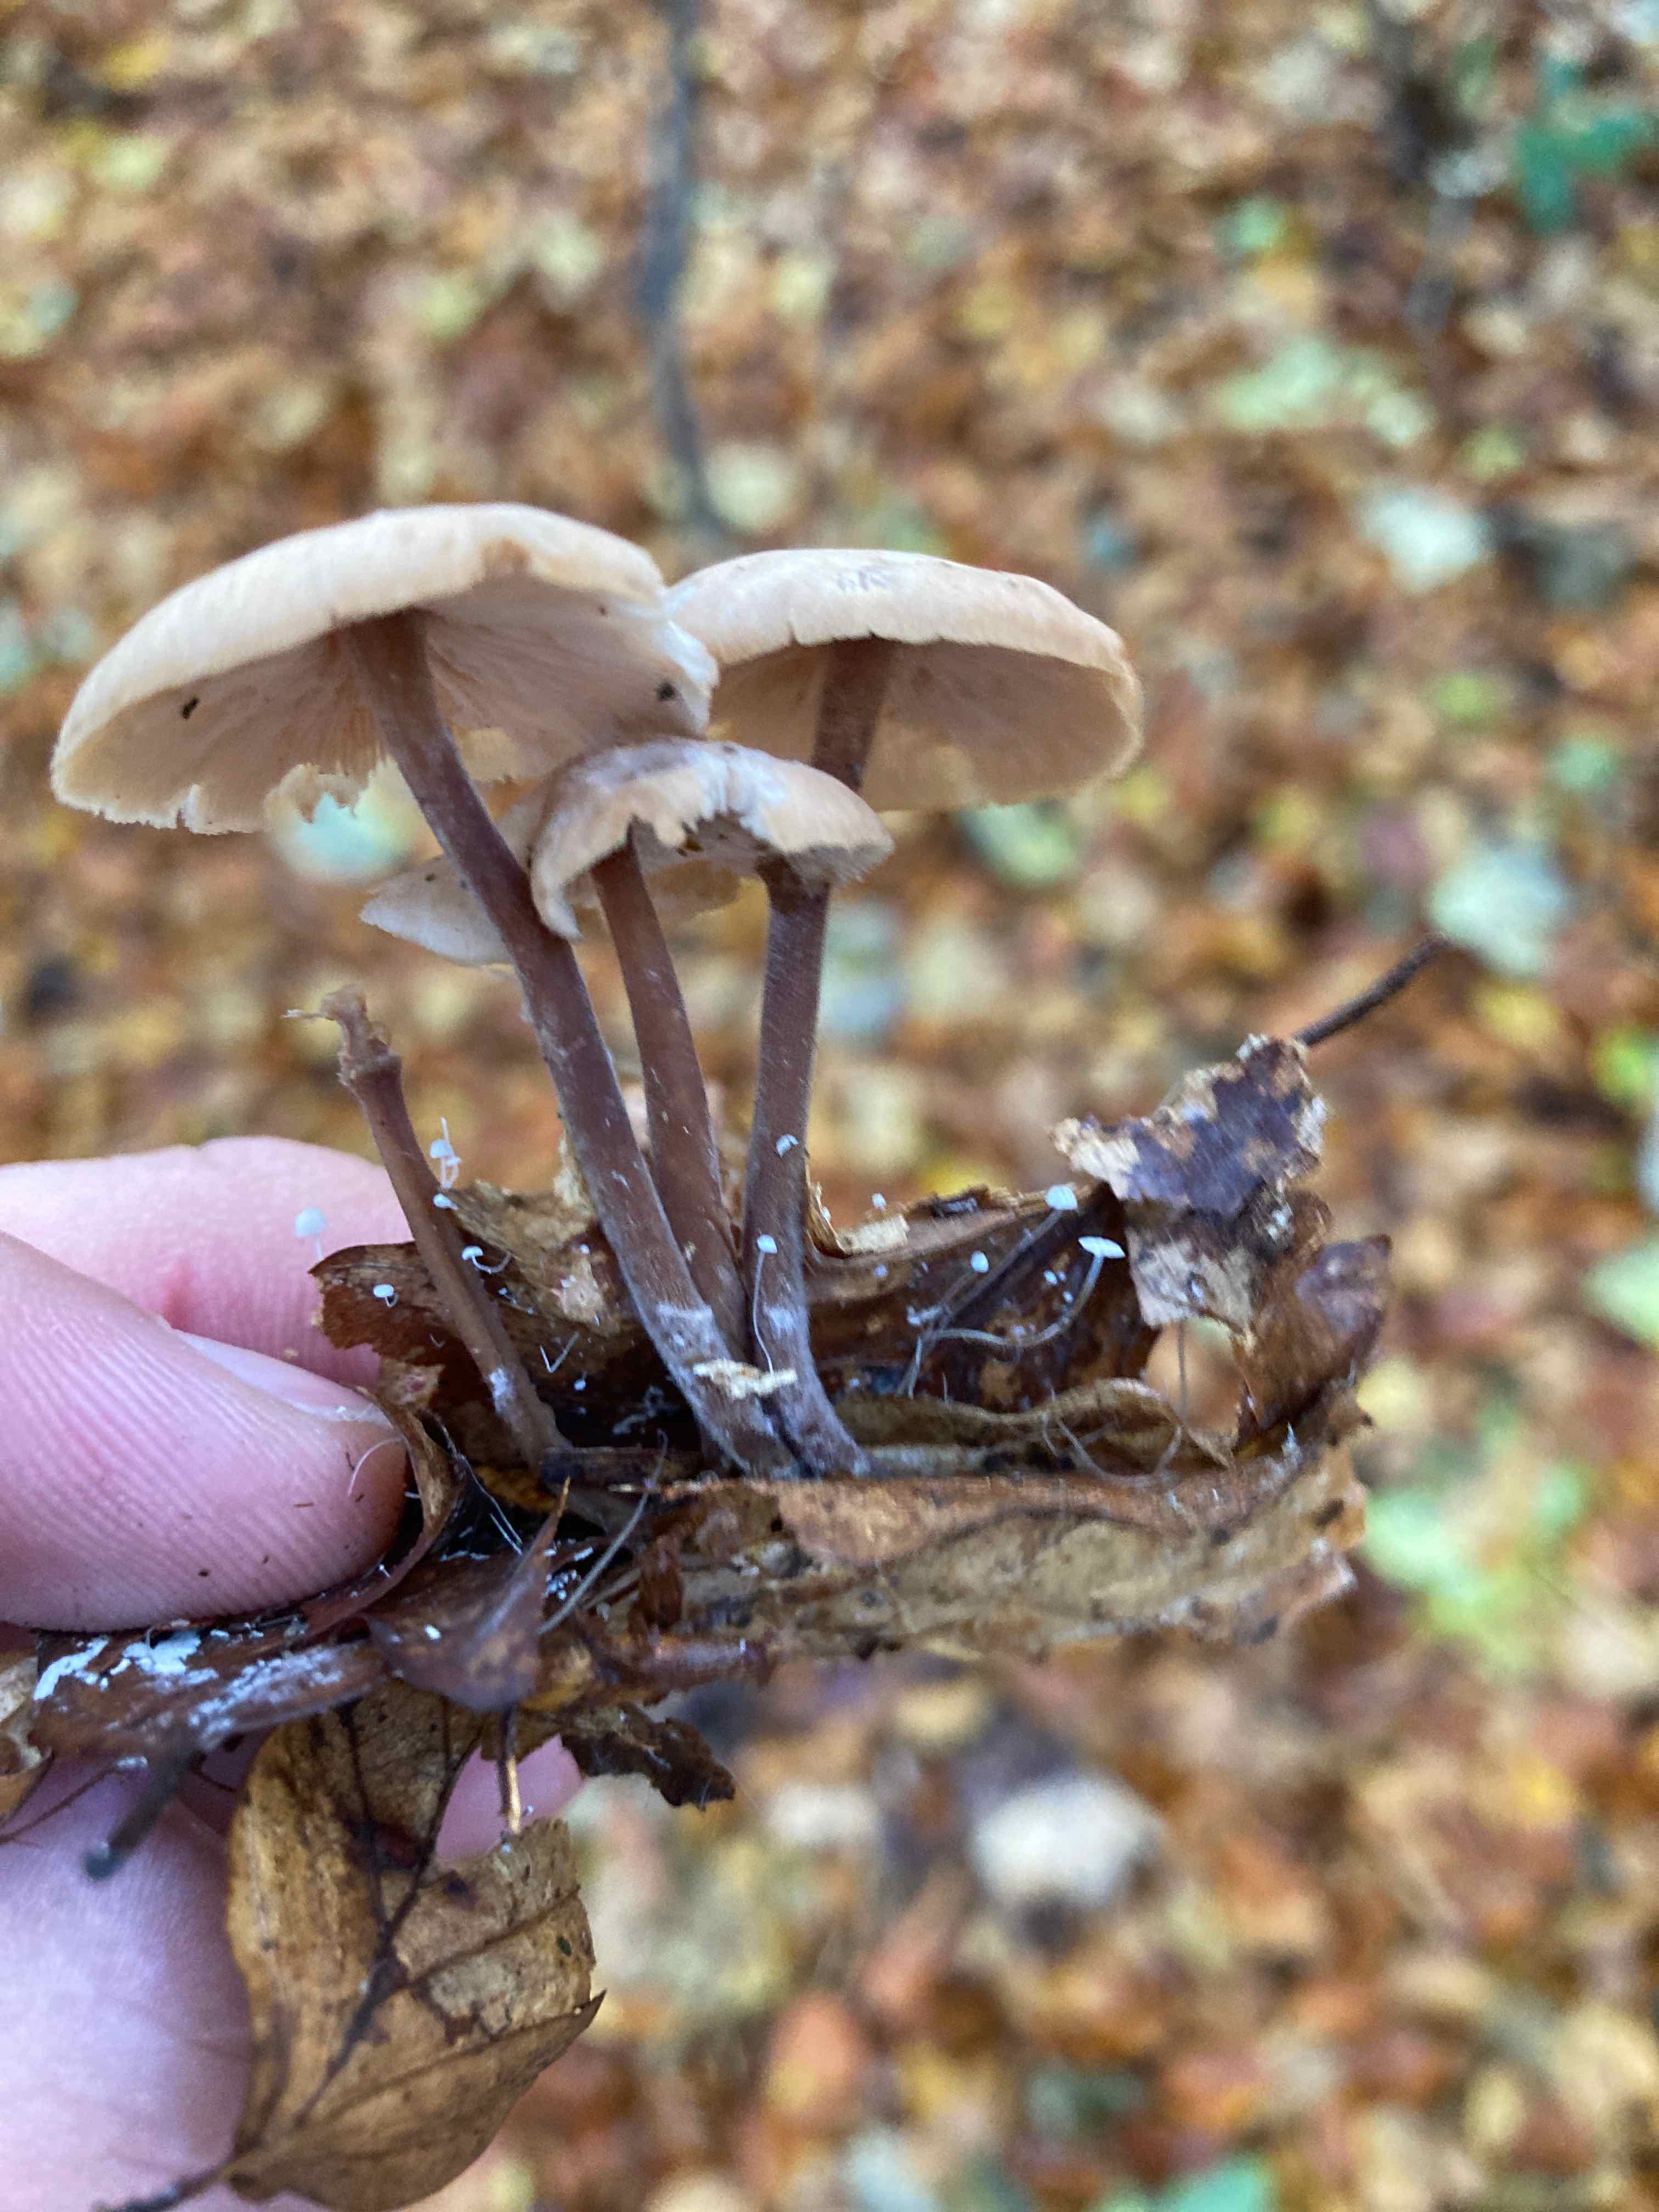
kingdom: Fungi
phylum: Basidiomycota
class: Agaricomycetes
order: Agaricales
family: Omphalotaceae
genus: Collybiopsis
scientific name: Collybiopsis confluens
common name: knippe-fladhat
